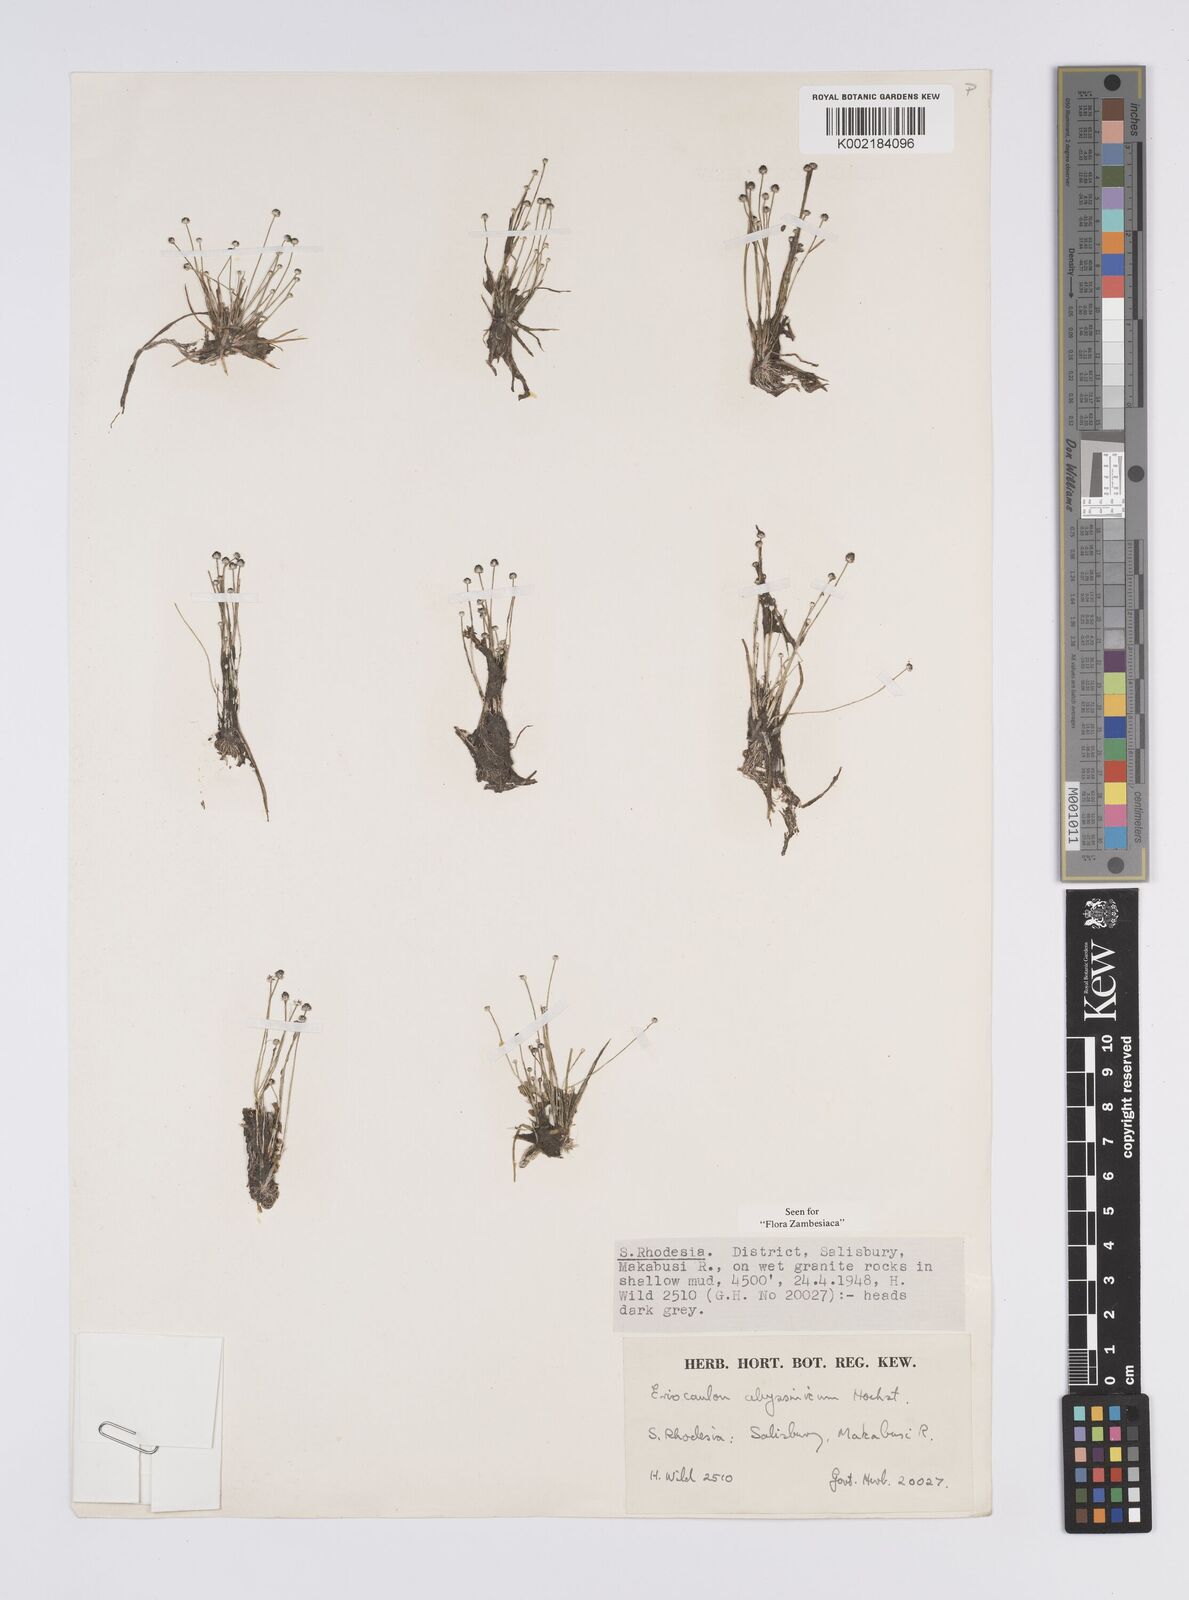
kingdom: Plantae
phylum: Tracheophyta
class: Liliopsida
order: Poales
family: Eriocaulaceae
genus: Eriocaulon
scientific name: Eriocaulon abyssinicum
